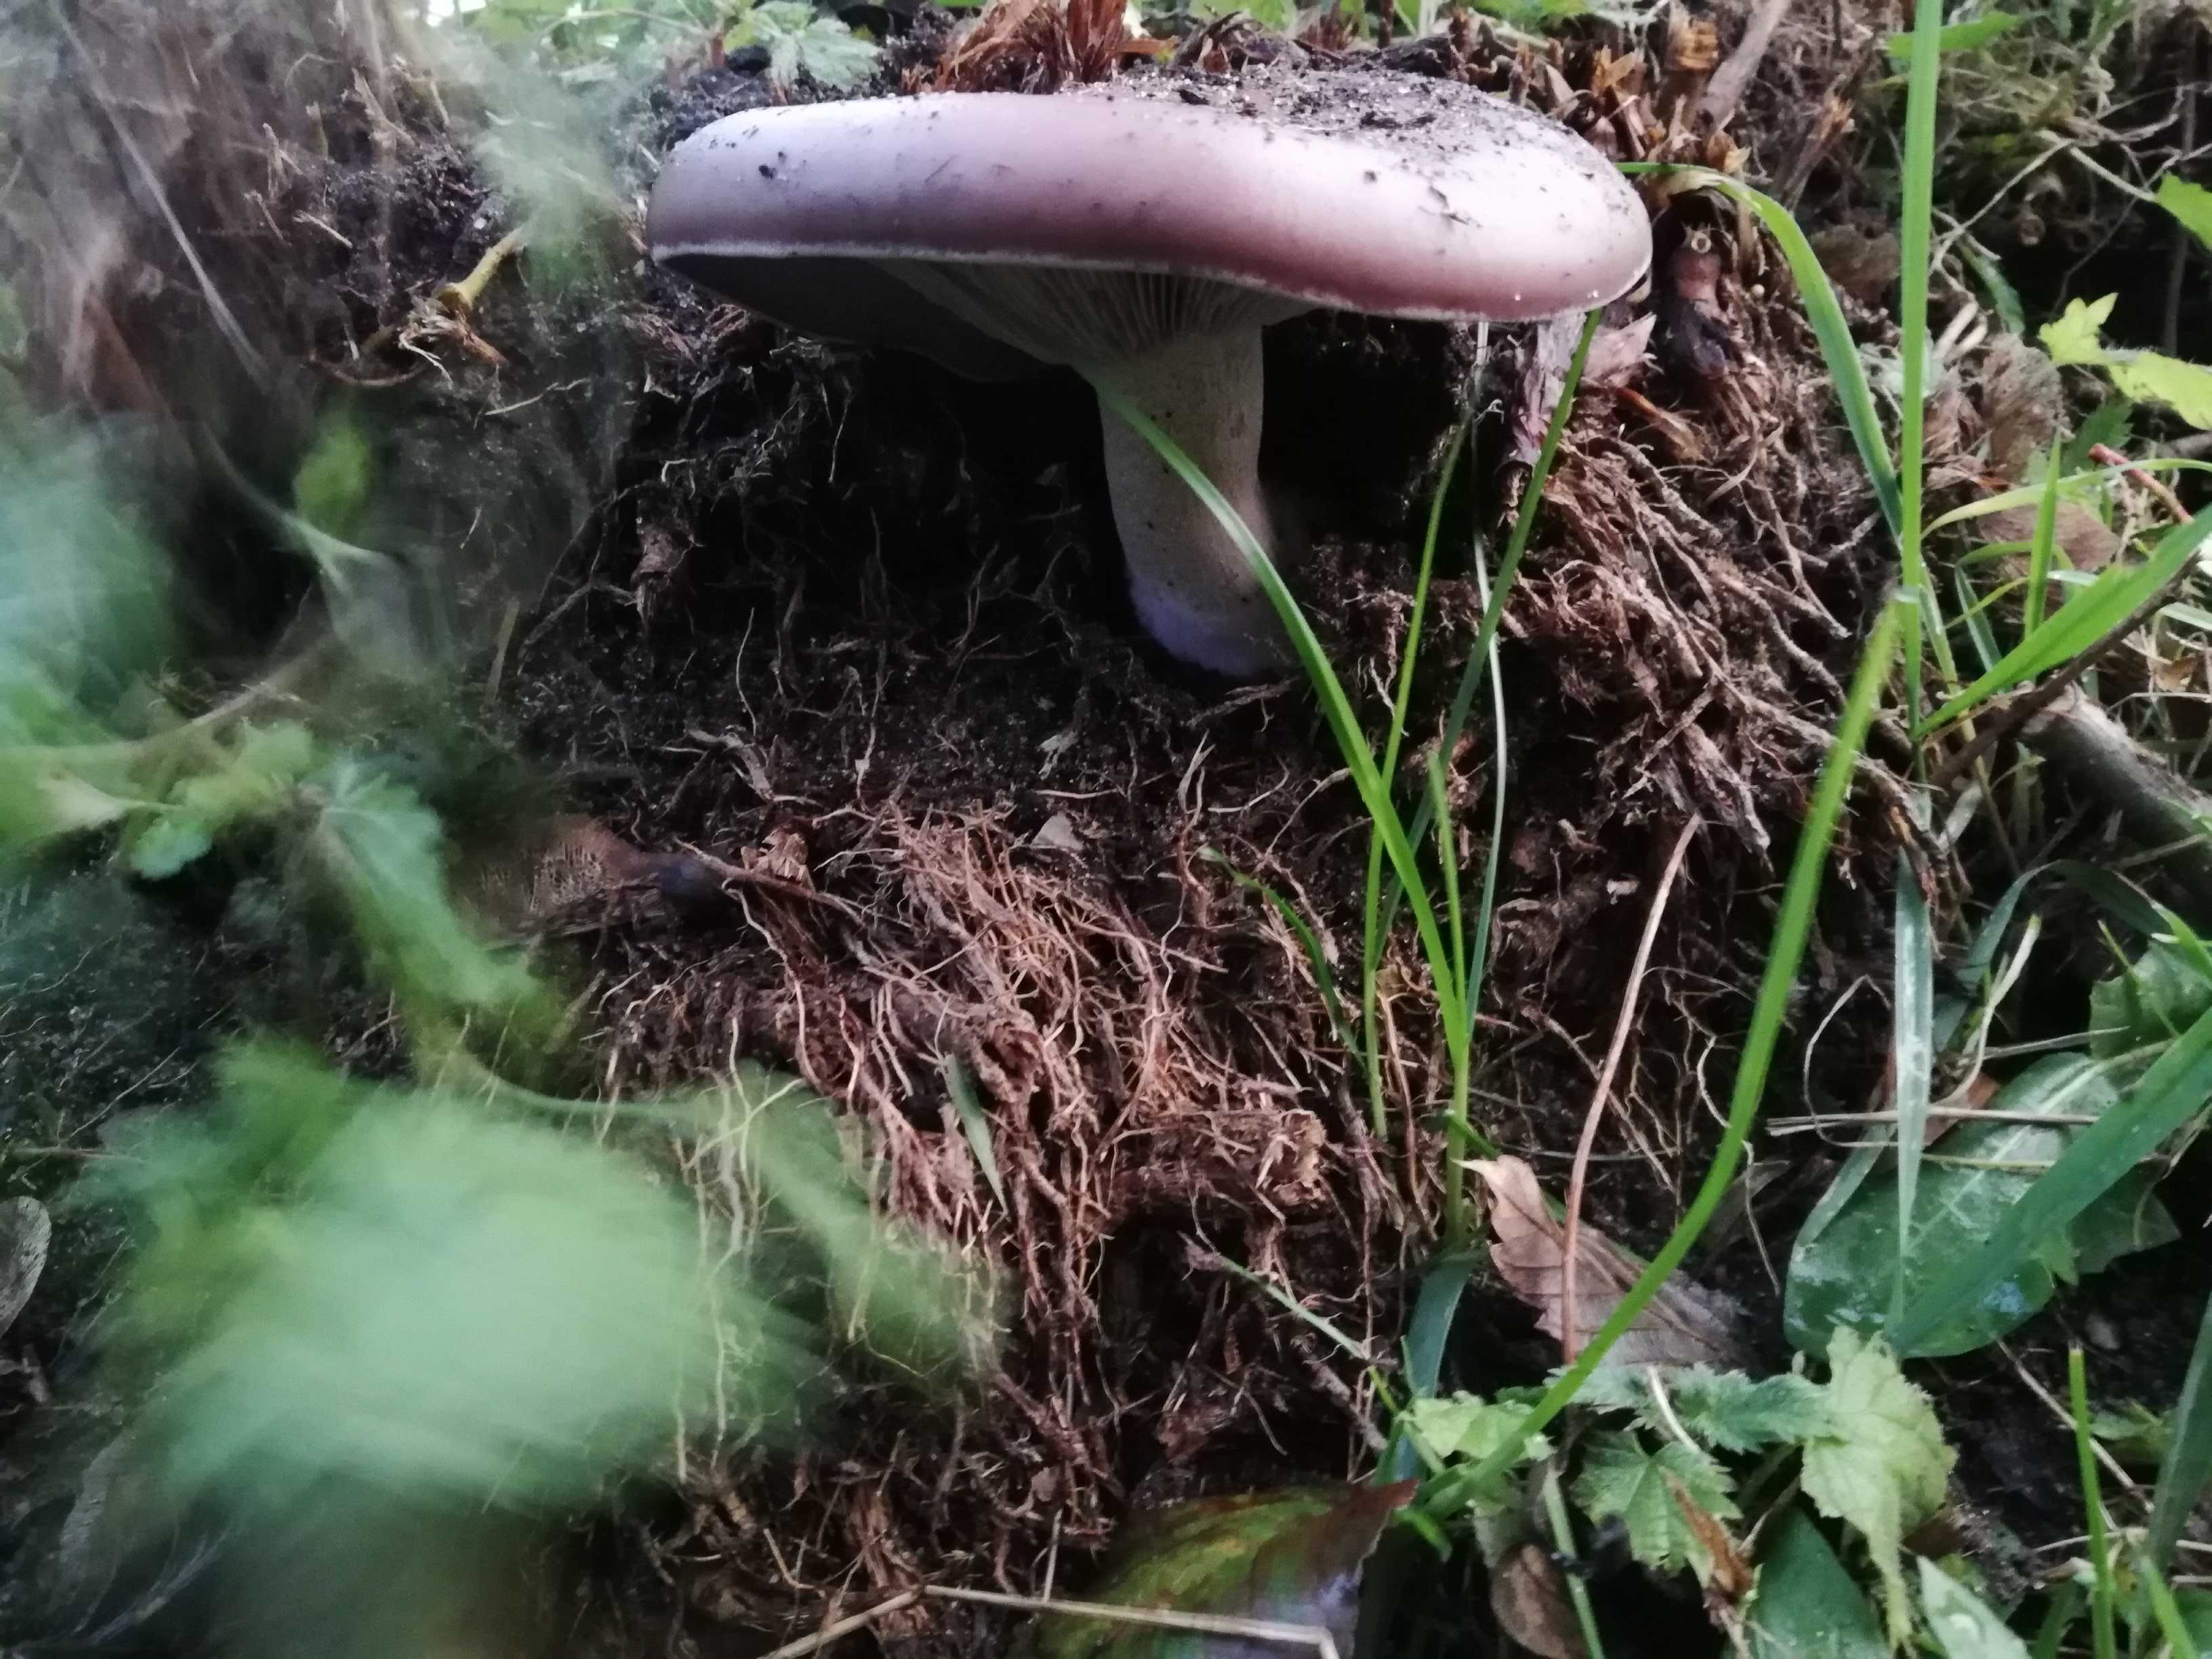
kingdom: Fungi
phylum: Basidiomycota
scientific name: Basidiomycota
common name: basidiesvampe
